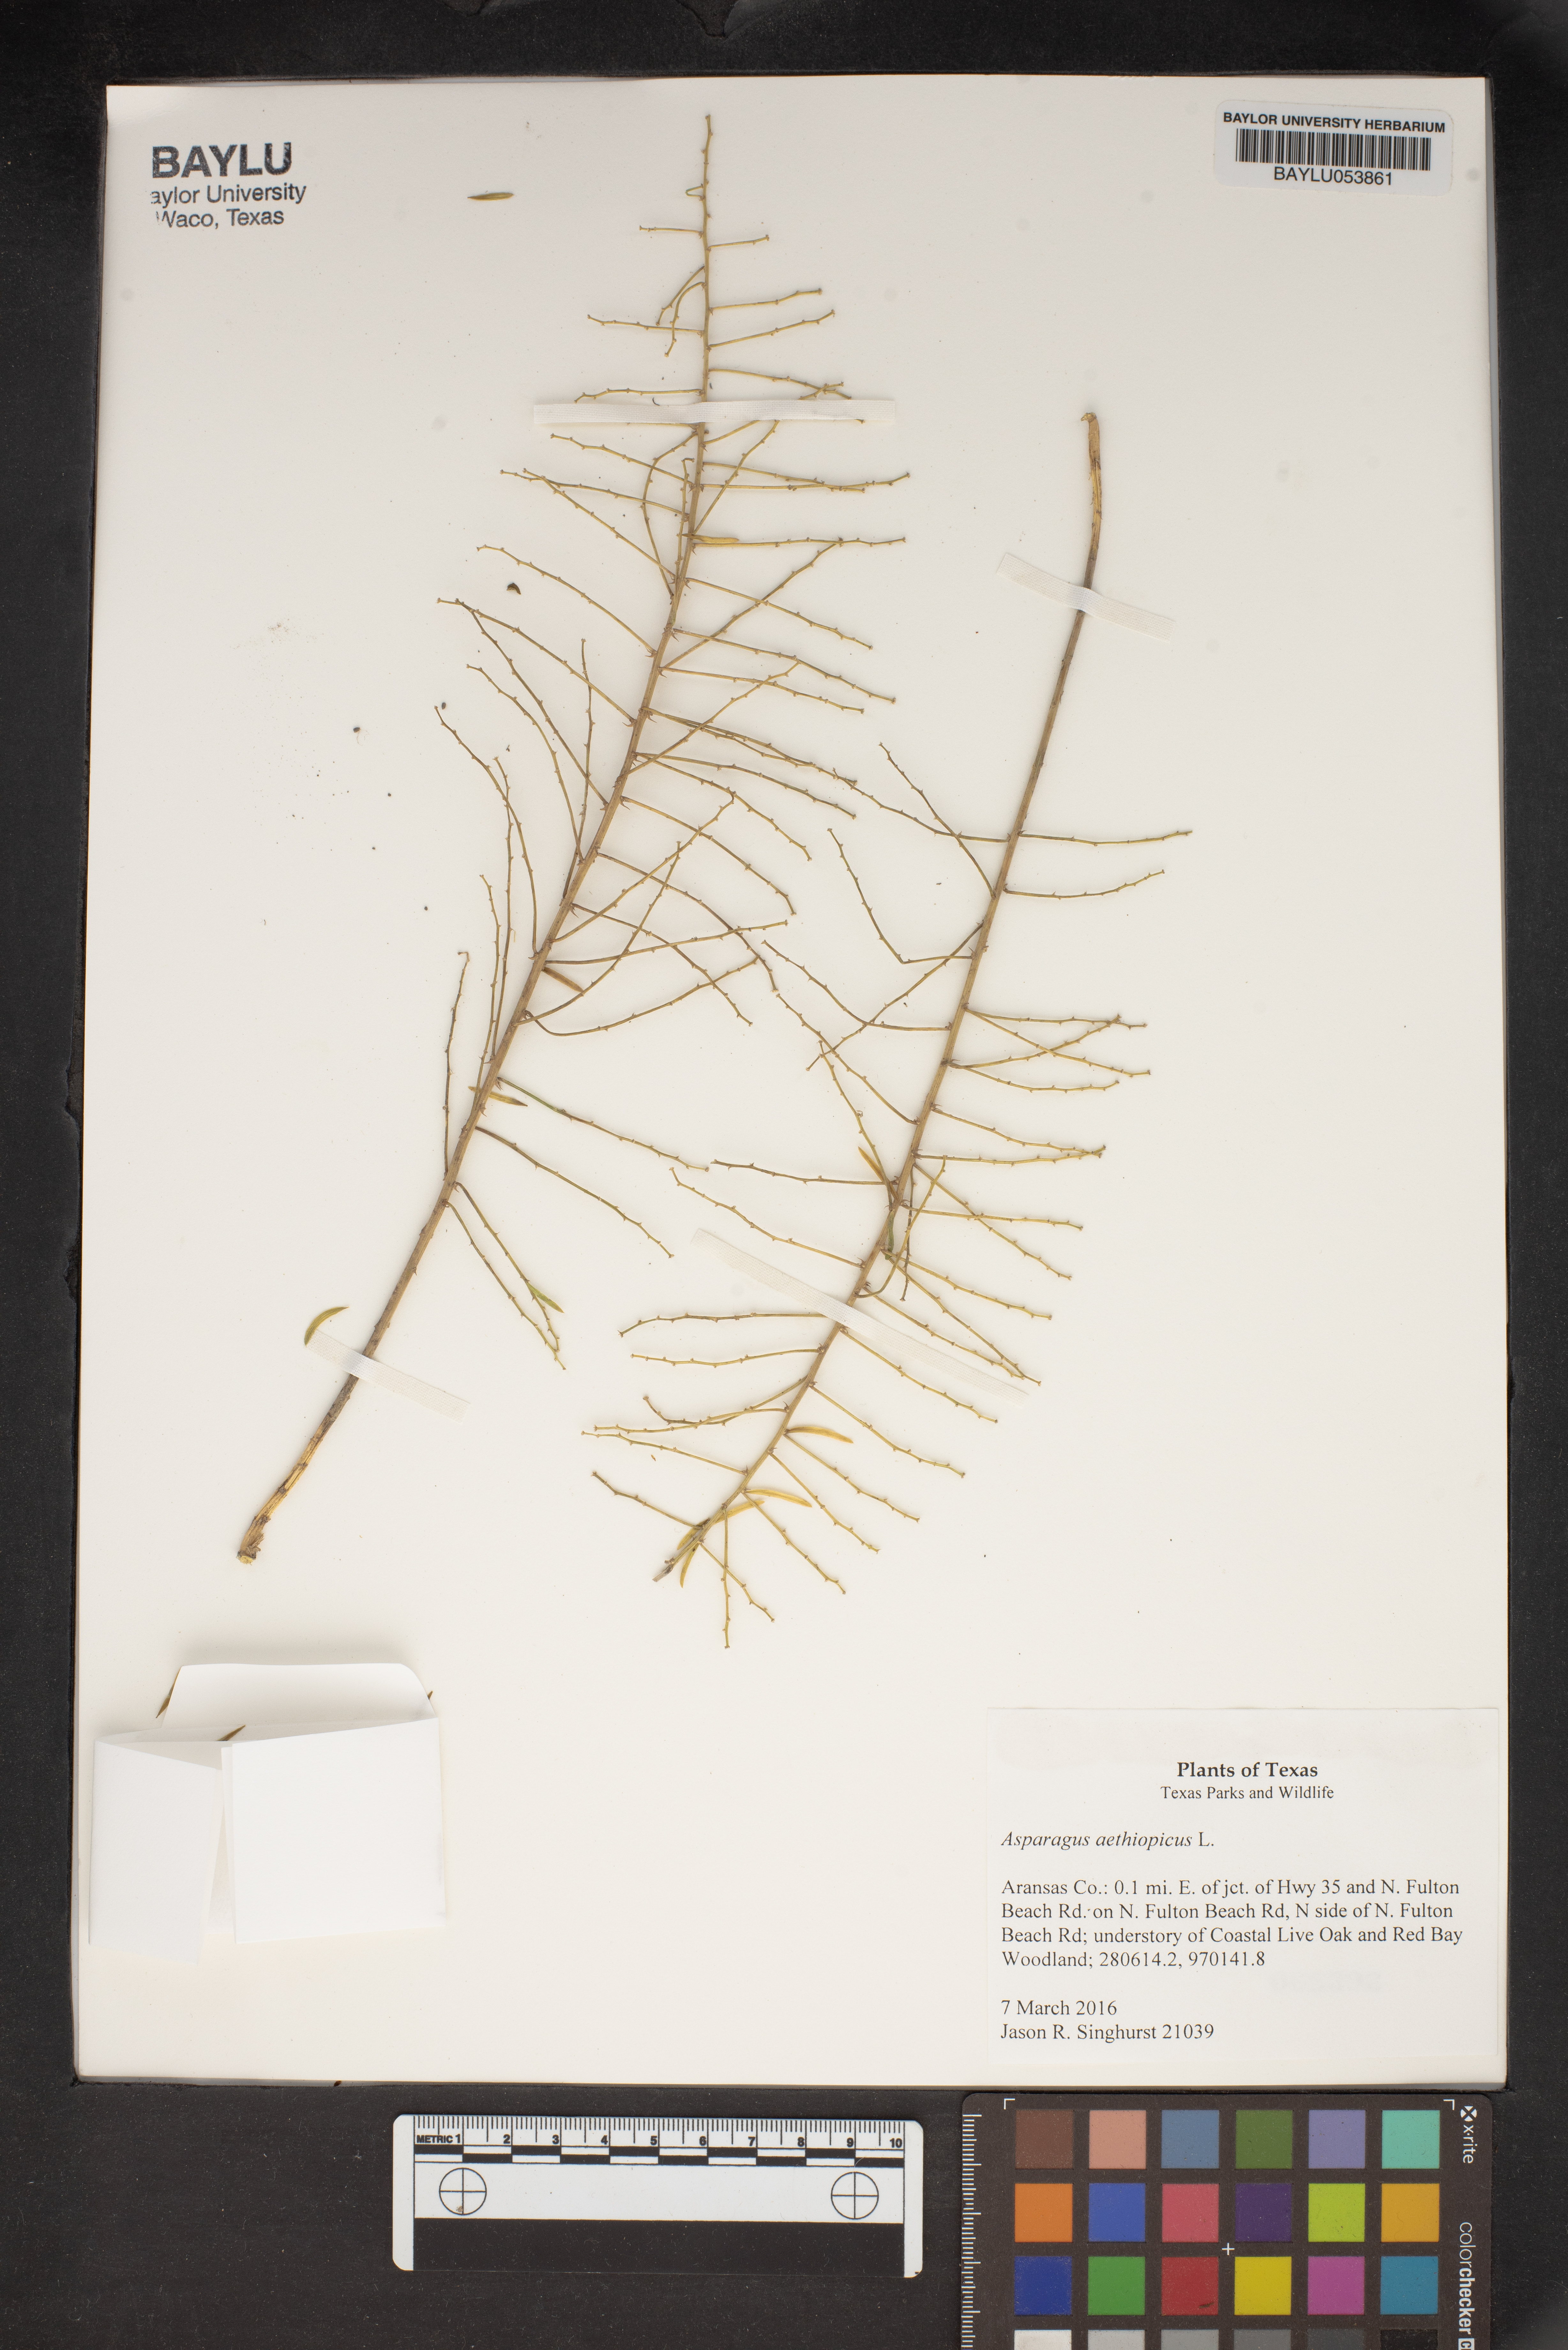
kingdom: Plantae
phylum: Tracheophyta
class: Liliopsida
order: Asparagales
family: Asparagaceae
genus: Asparagus
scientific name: Asparagus aethiopicus
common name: Sprenger's asparagus fern
